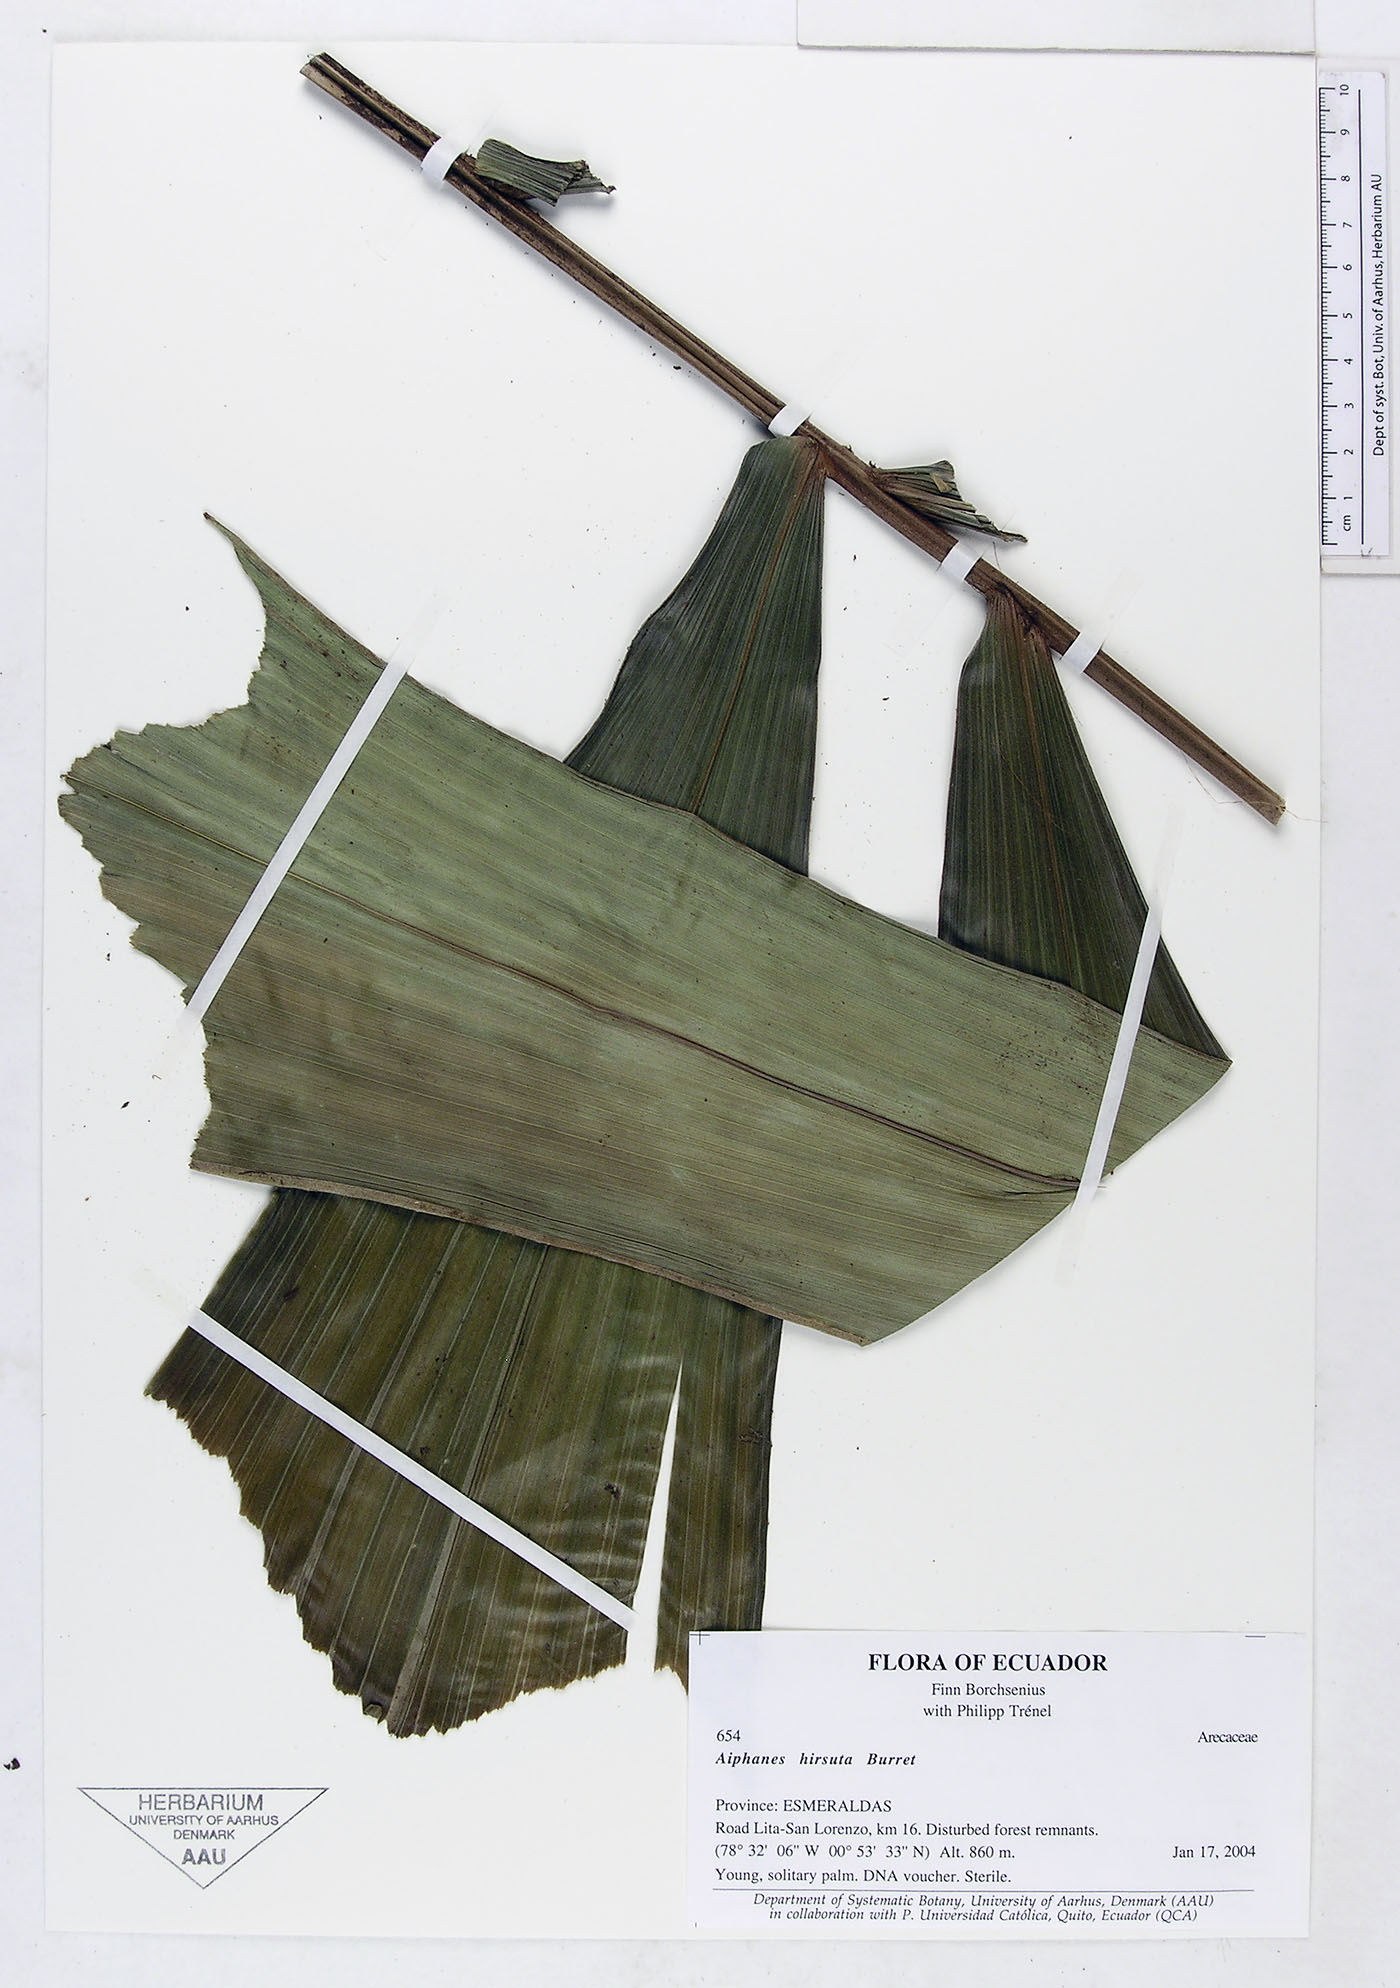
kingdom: Plantae
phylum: Tracheophyta
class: Liliopsida
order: Arecales
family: Arecaceae
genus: Aiphanes
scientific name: Aiphanes hirsuta
